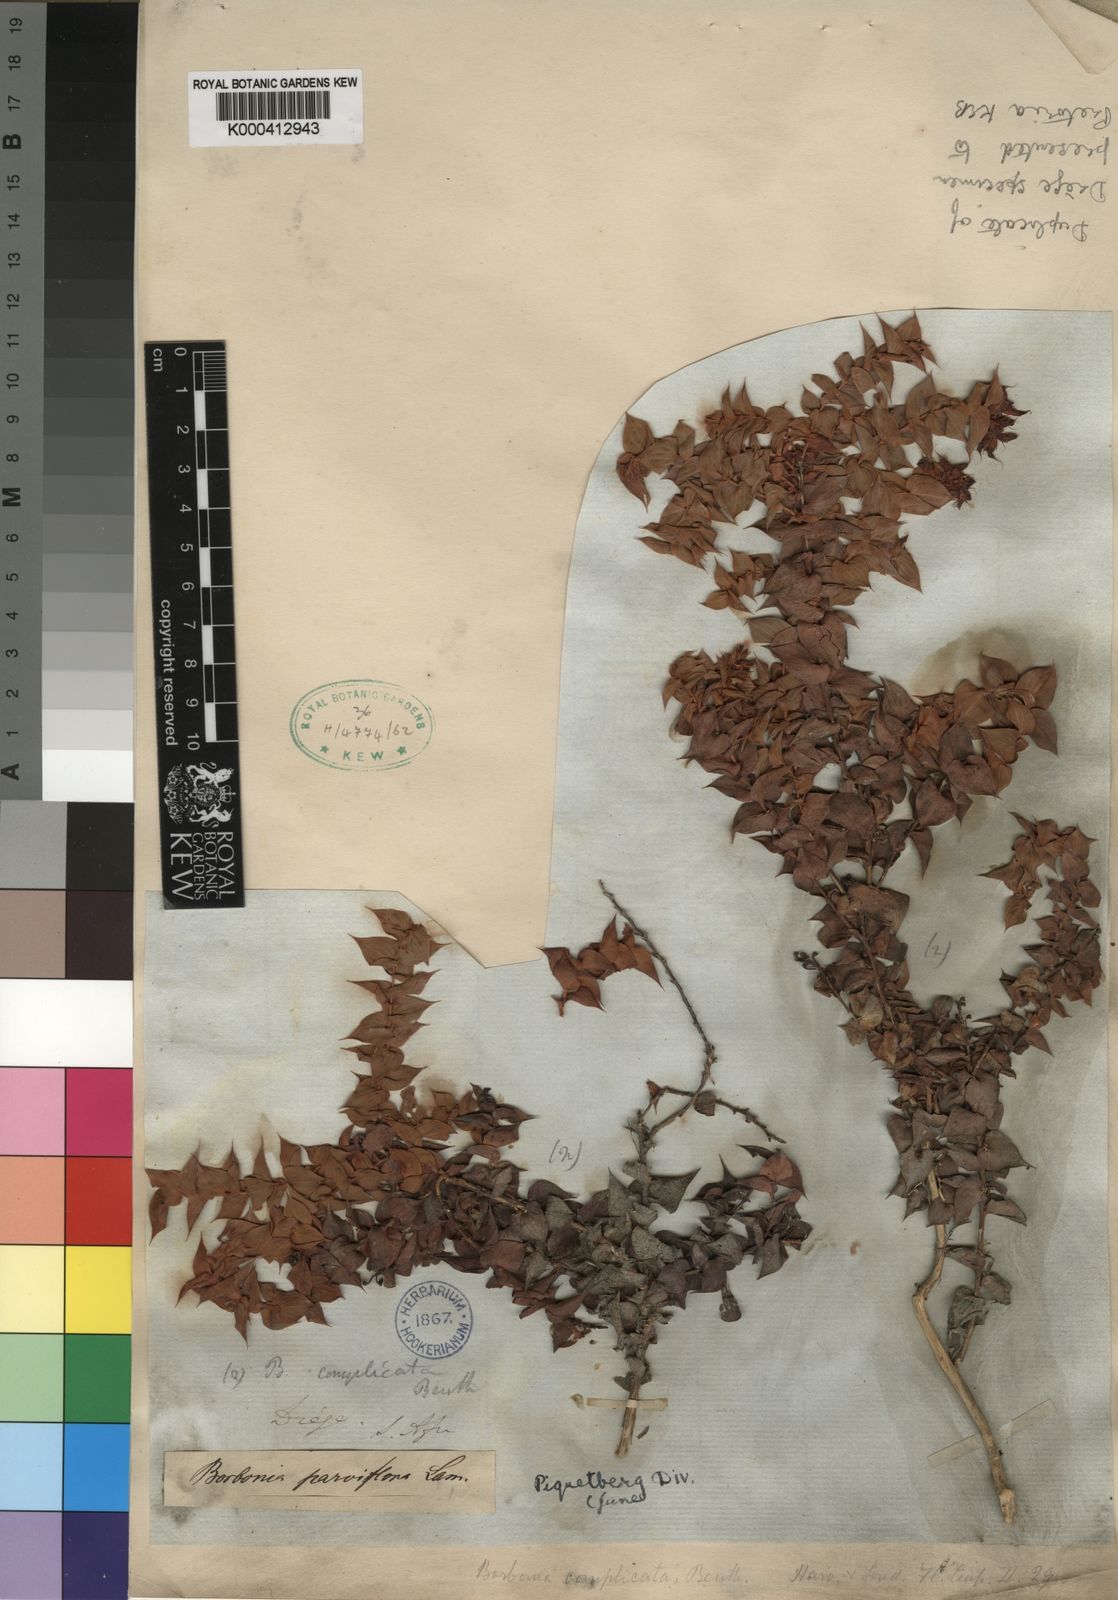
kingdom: Plantae
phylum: Tracheophyta
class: Magnoliopsida
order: Fabales
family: Fabaceae
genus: Aspalathus
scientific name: Aspalathus complicata
